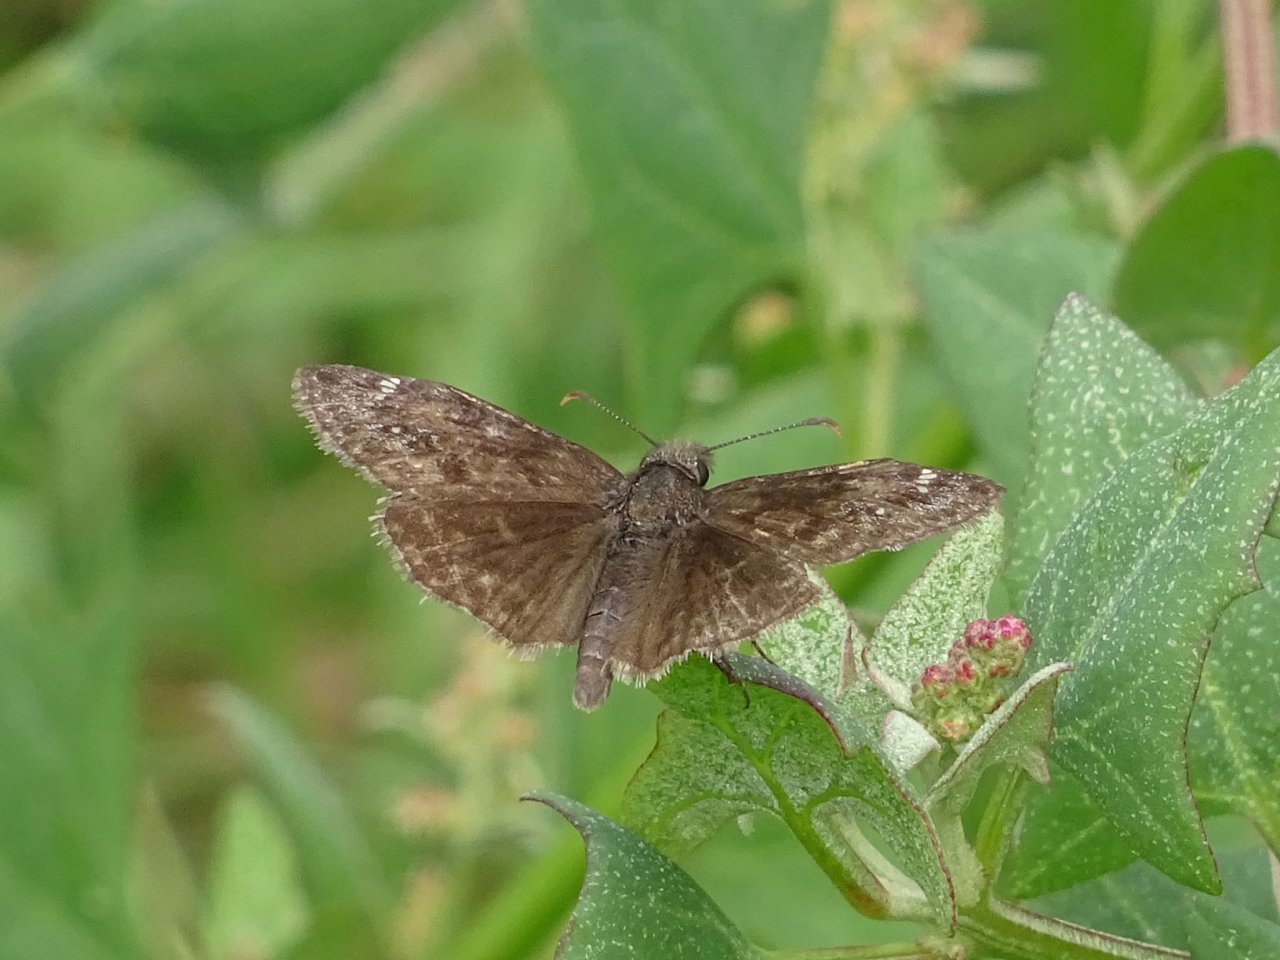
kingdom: Animalia
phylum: Arthropoda
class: Insecta
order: Lepidoptera
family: Hesperiidae
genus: Gesta
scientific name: Gesta
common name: Wild Indigo Duskywing
